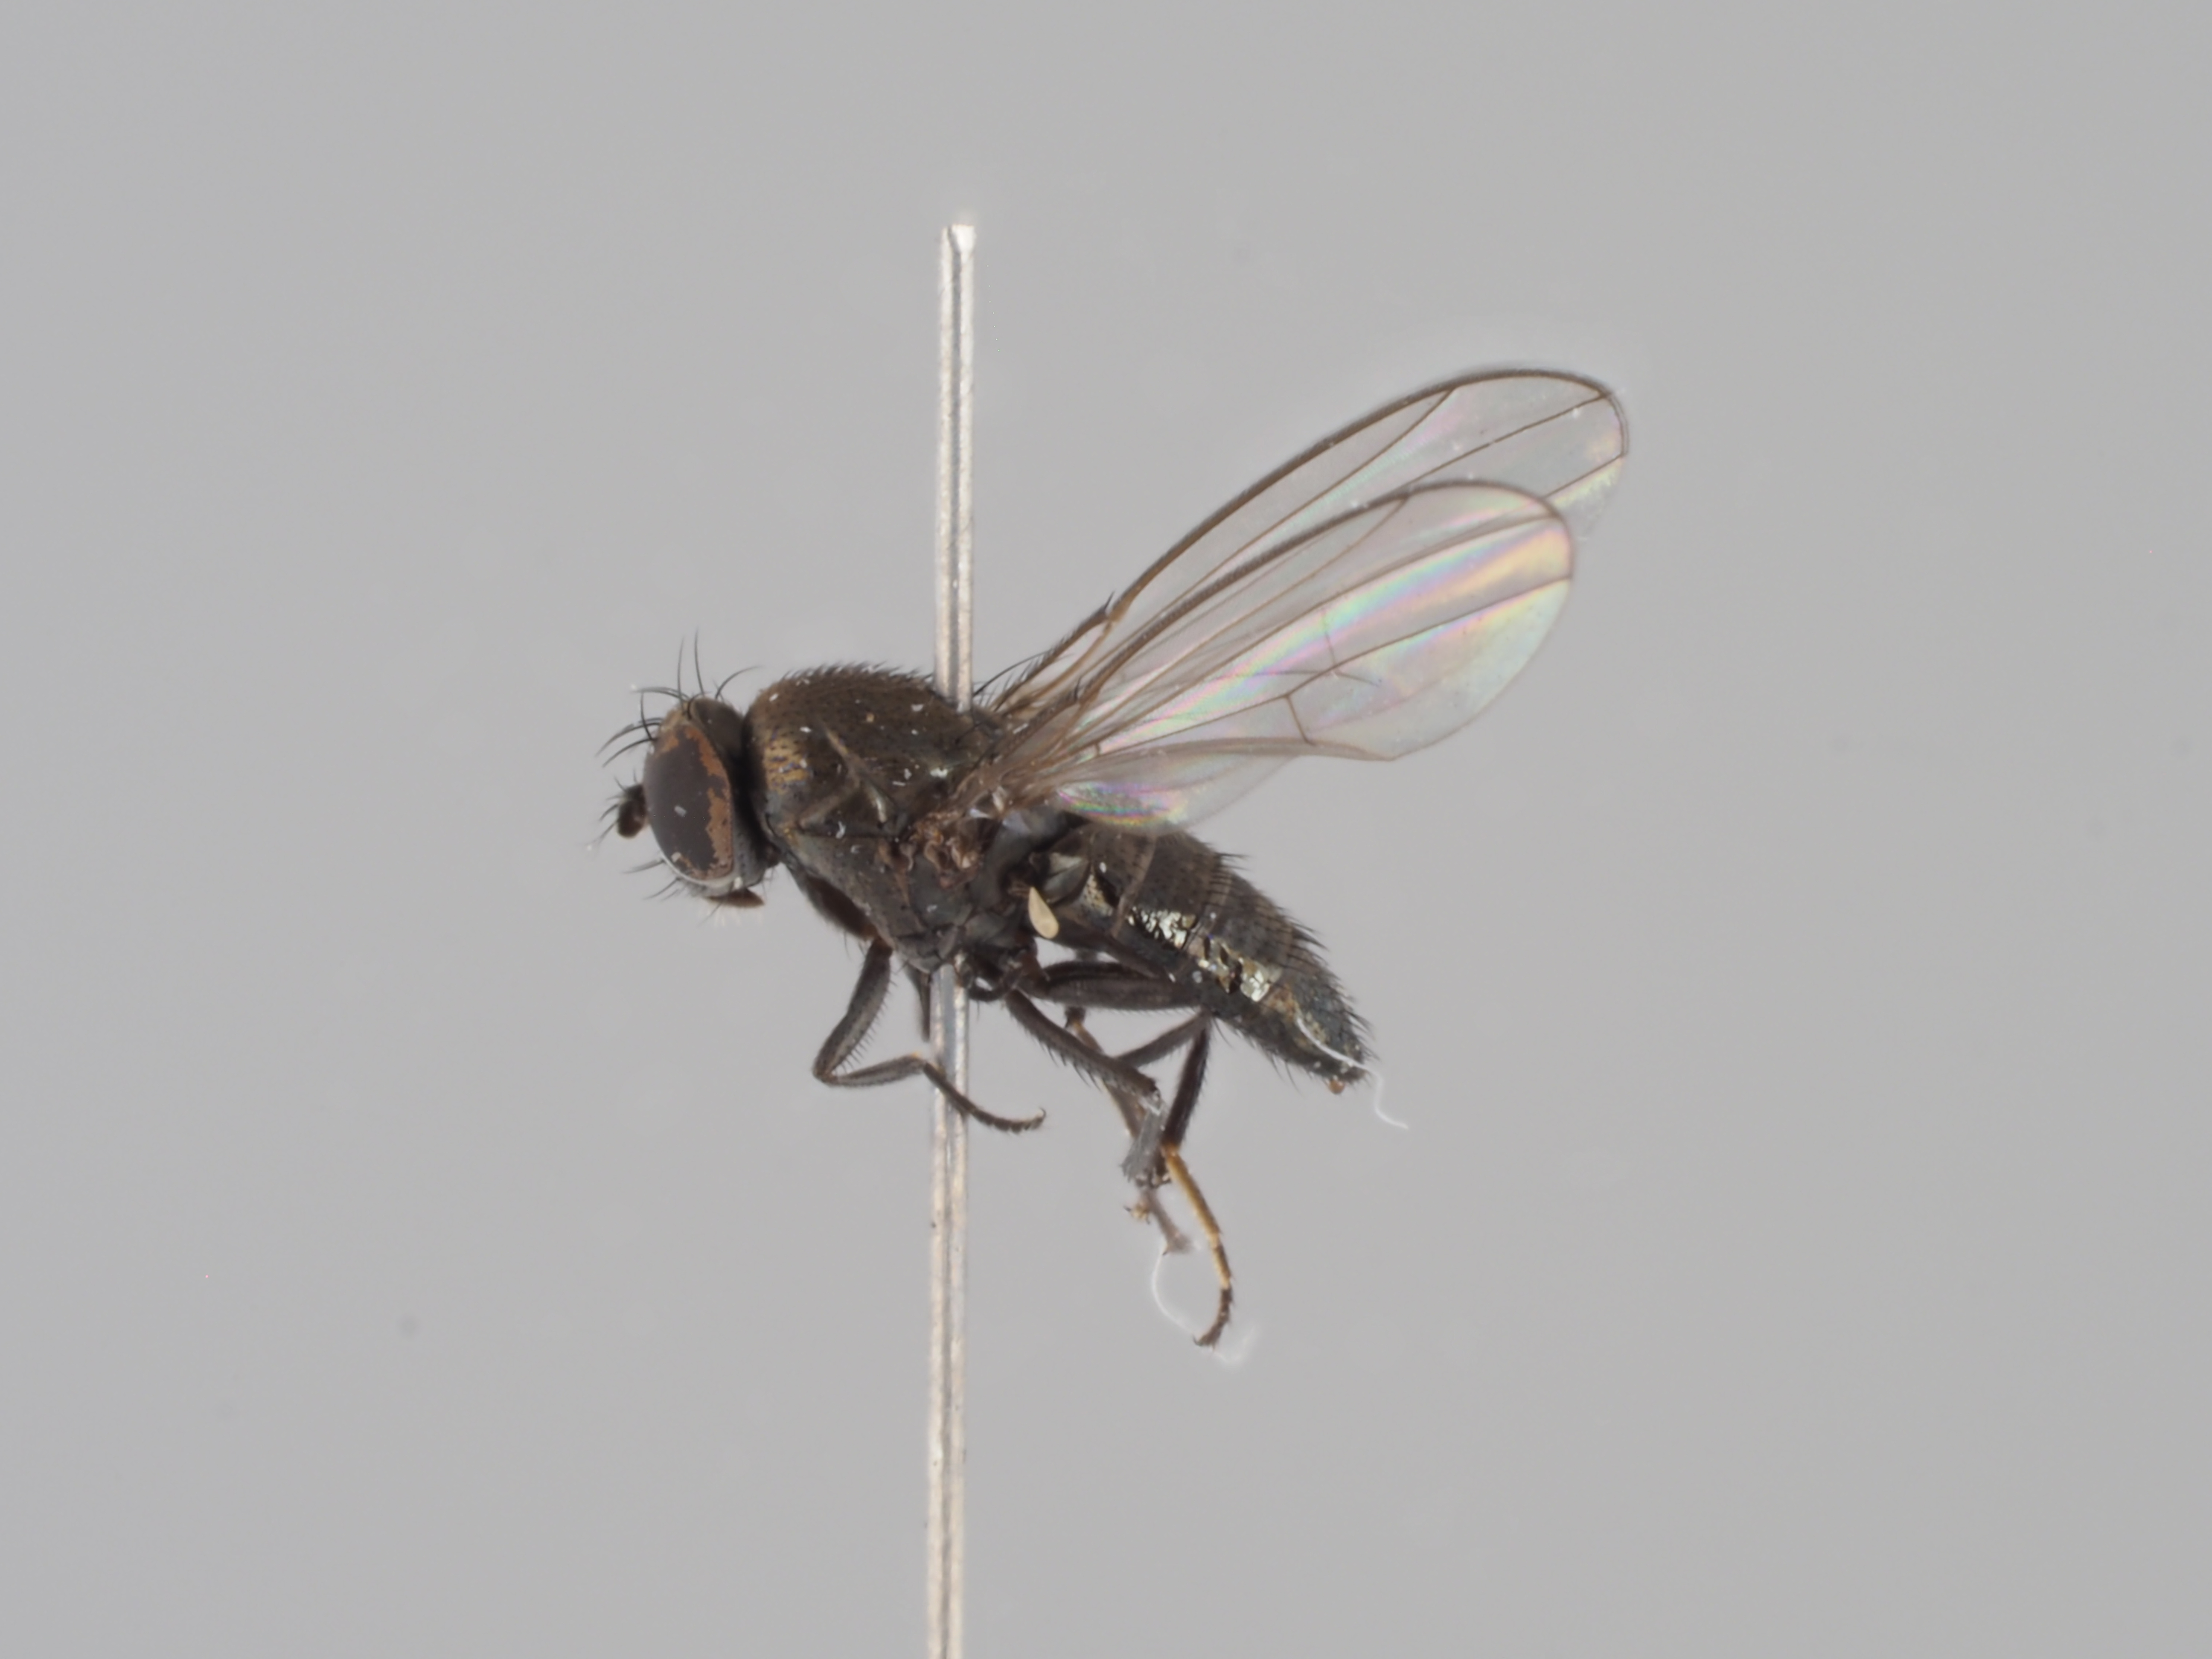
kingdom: Animalia
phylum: Arthropoda
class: Insecta
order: Diptera
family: Ephydridae
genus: Gymnoclasiopa
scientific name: Gymnoclasiopa nigerrima
